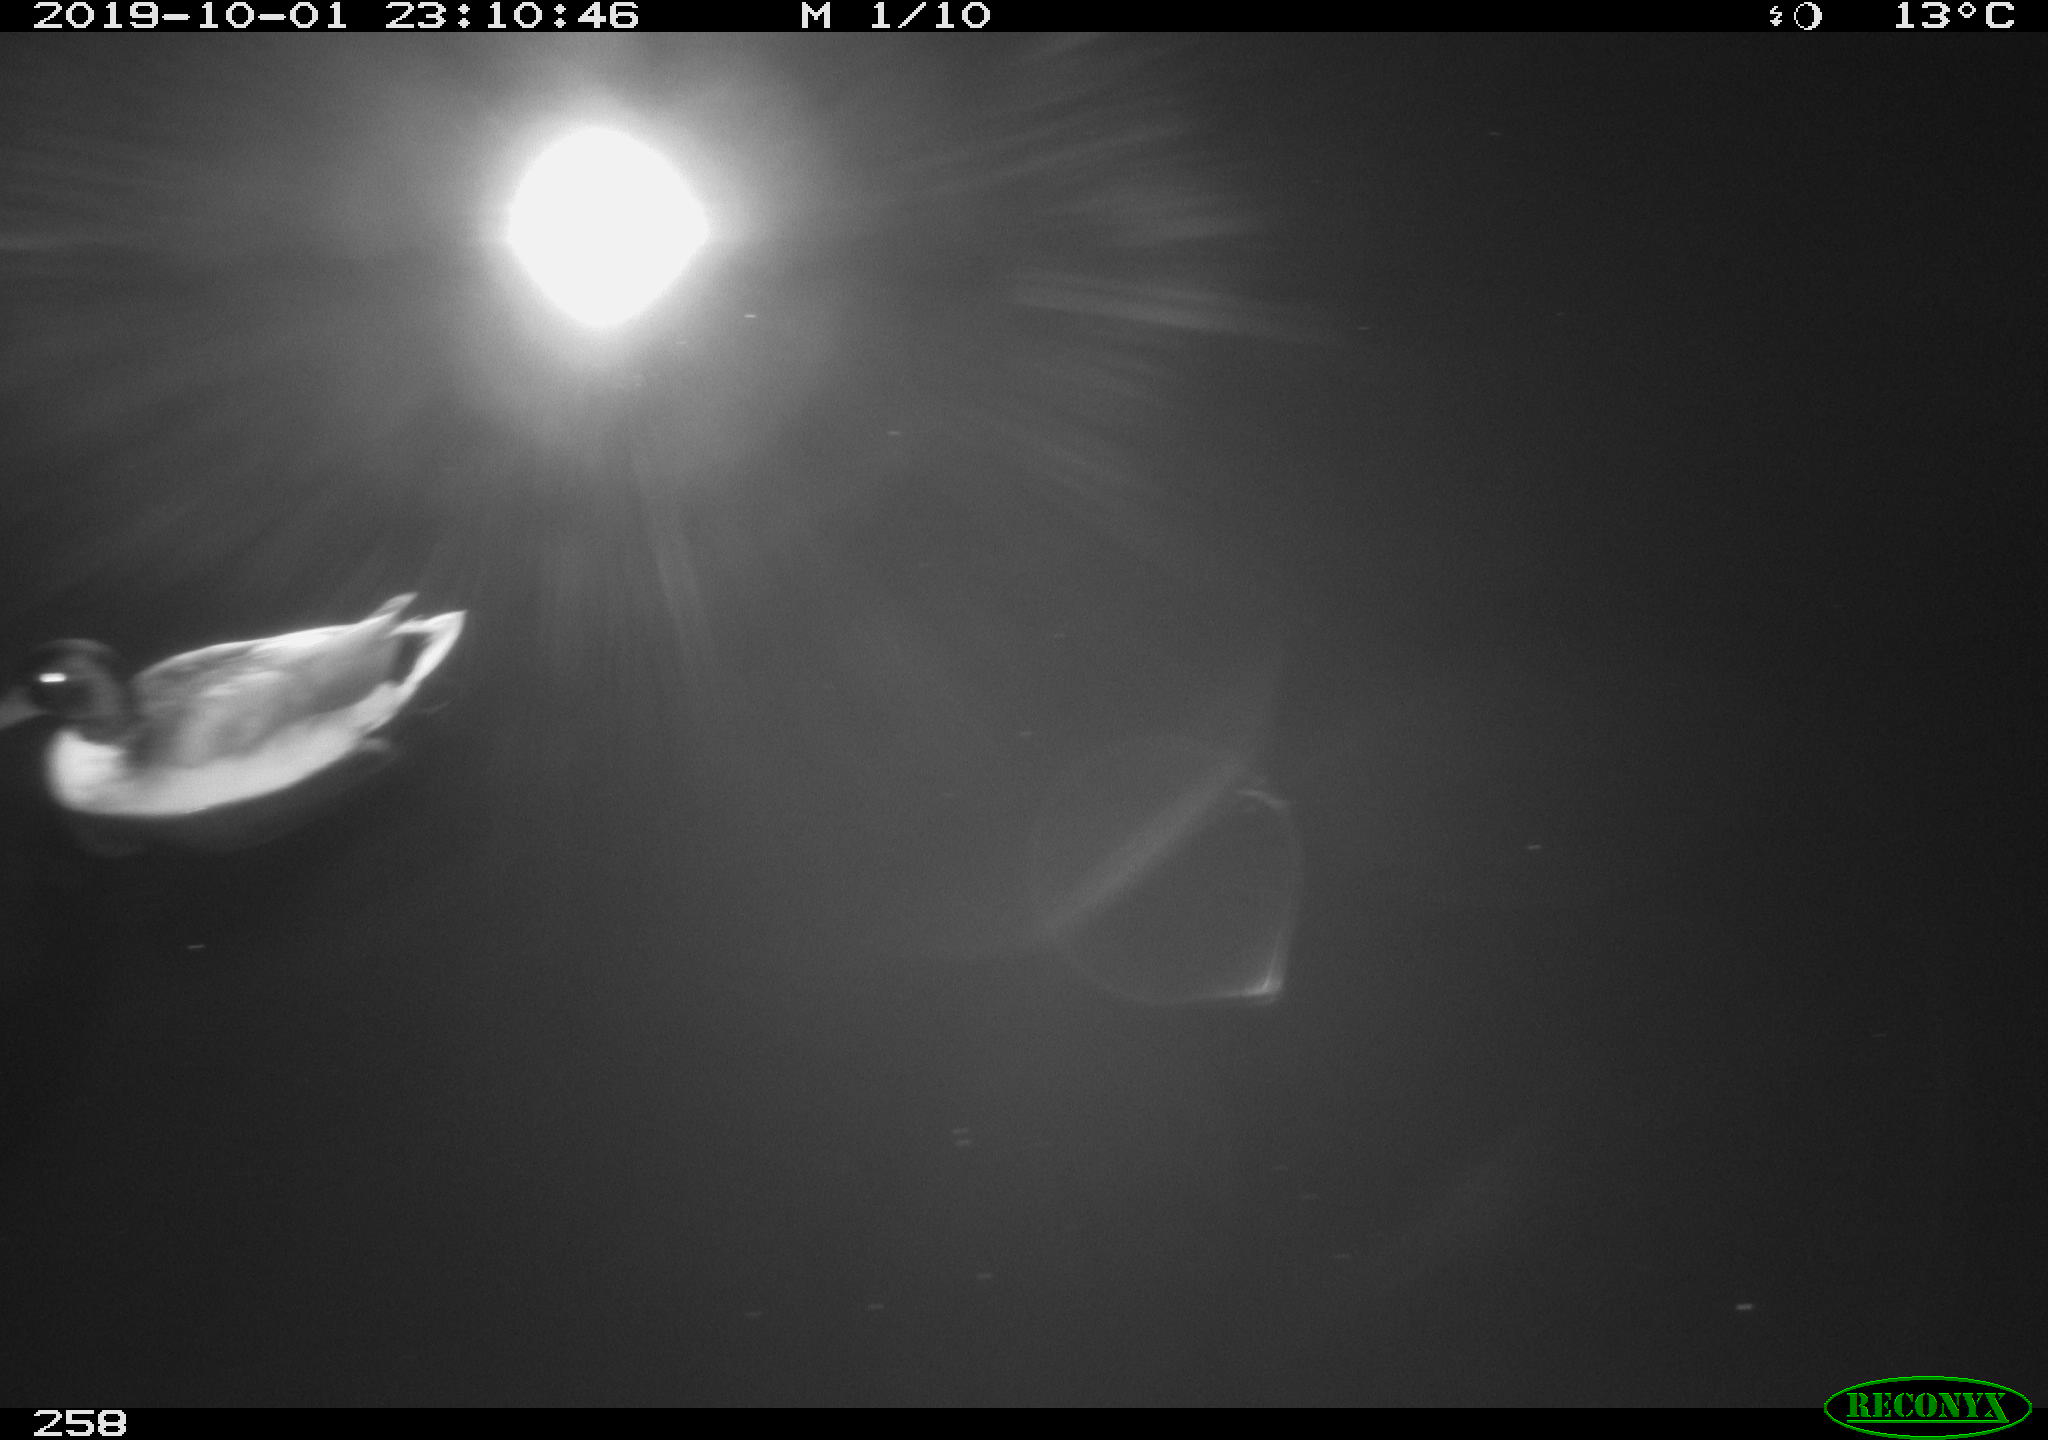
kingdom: Animalia
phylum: Chordata
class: Aves
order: Anseriformes
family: Anatidae
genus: Anas
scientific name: Anas platyrhynchos
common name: Mallard
